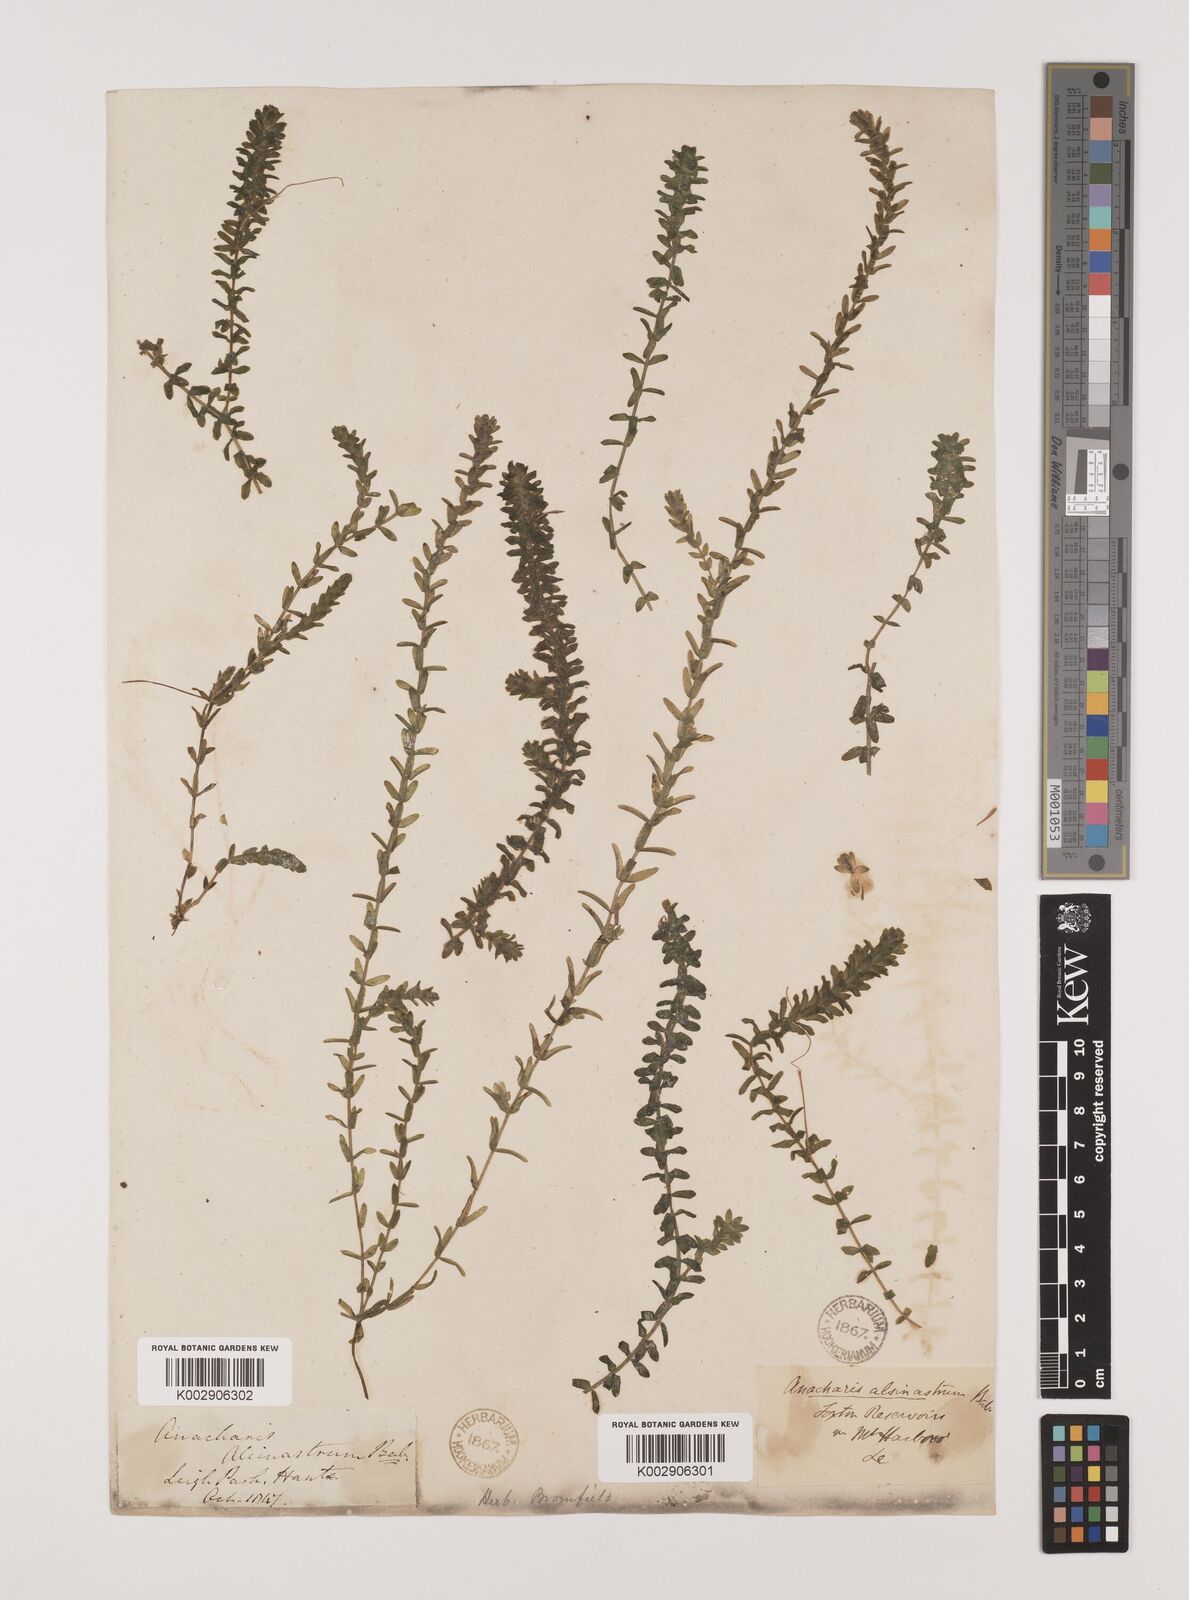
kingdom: Plantae
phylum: Tracheophyta
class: Liliopsida
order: Alismatales
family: Hydrocharitaceae
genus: Elodea
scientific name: Elodea canadensis
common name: Canadian waterweed
